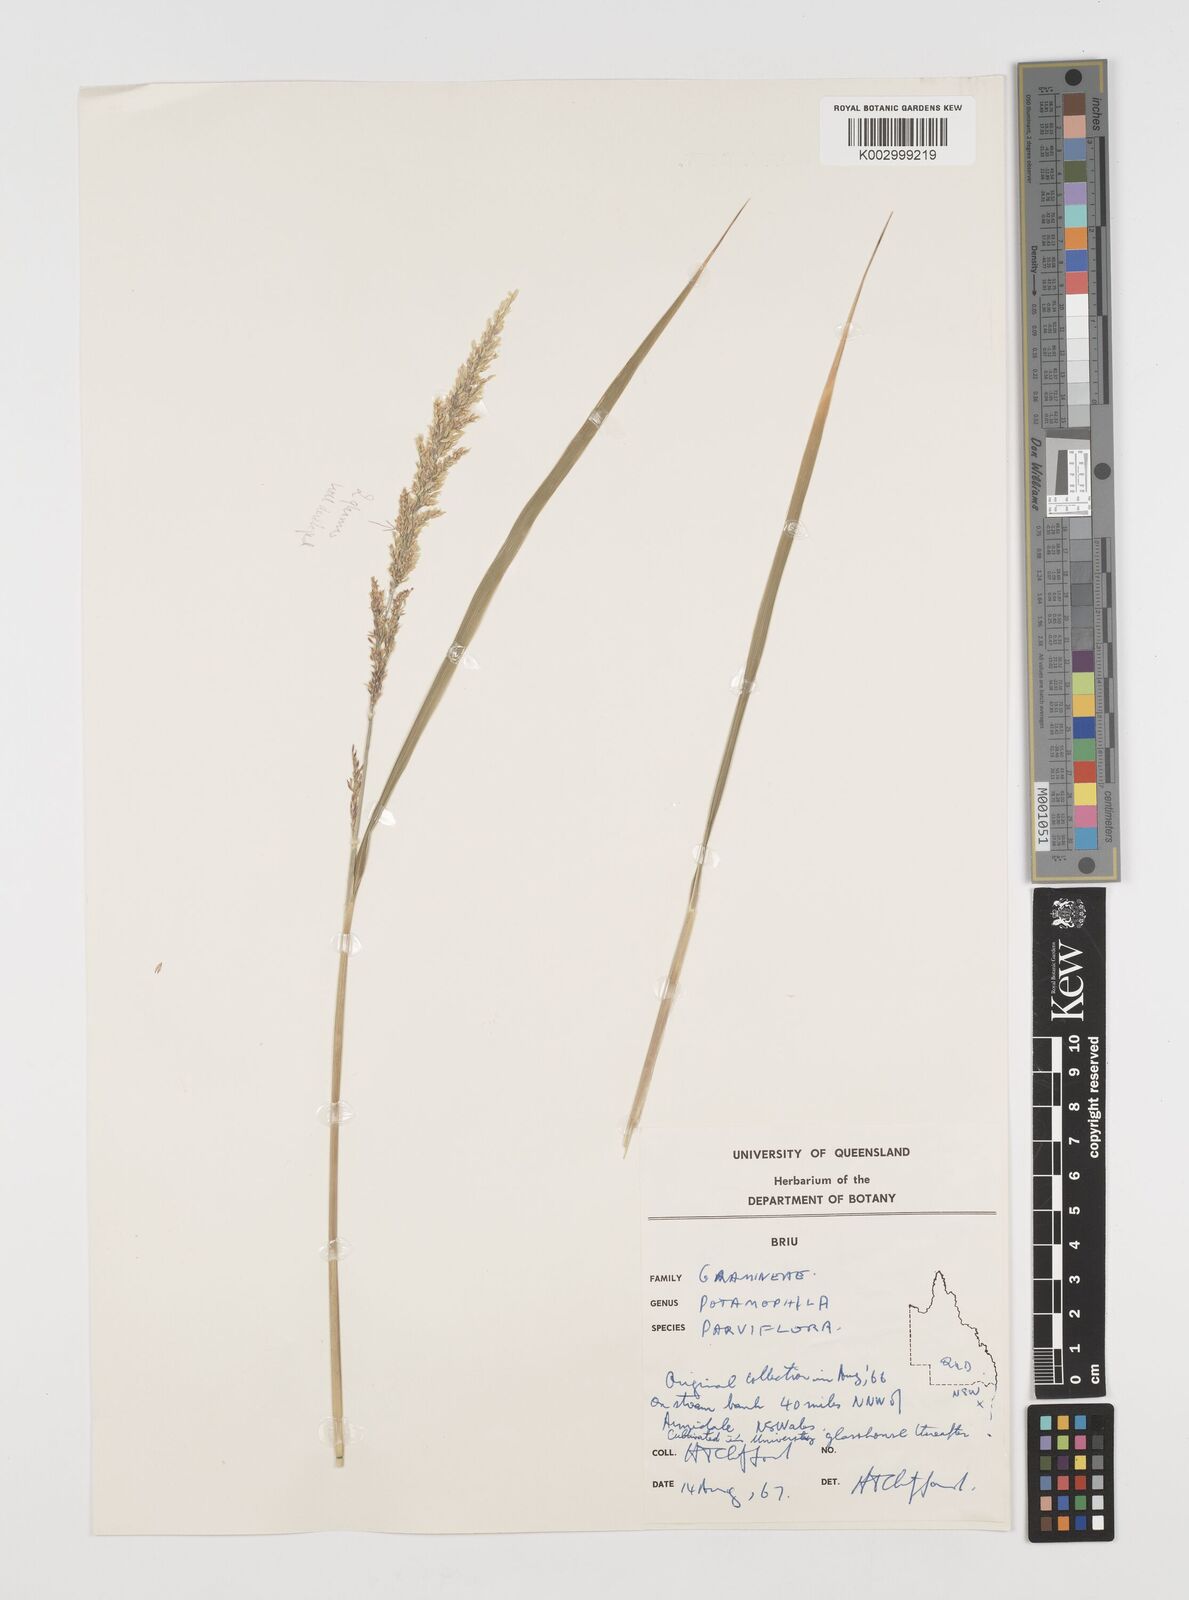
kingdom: Plantae
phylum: Tracheophyta
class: Magnoliopsida
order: Caryophyllales
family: Microteaceae
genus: Microtea
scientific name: Microtea maypurensis
